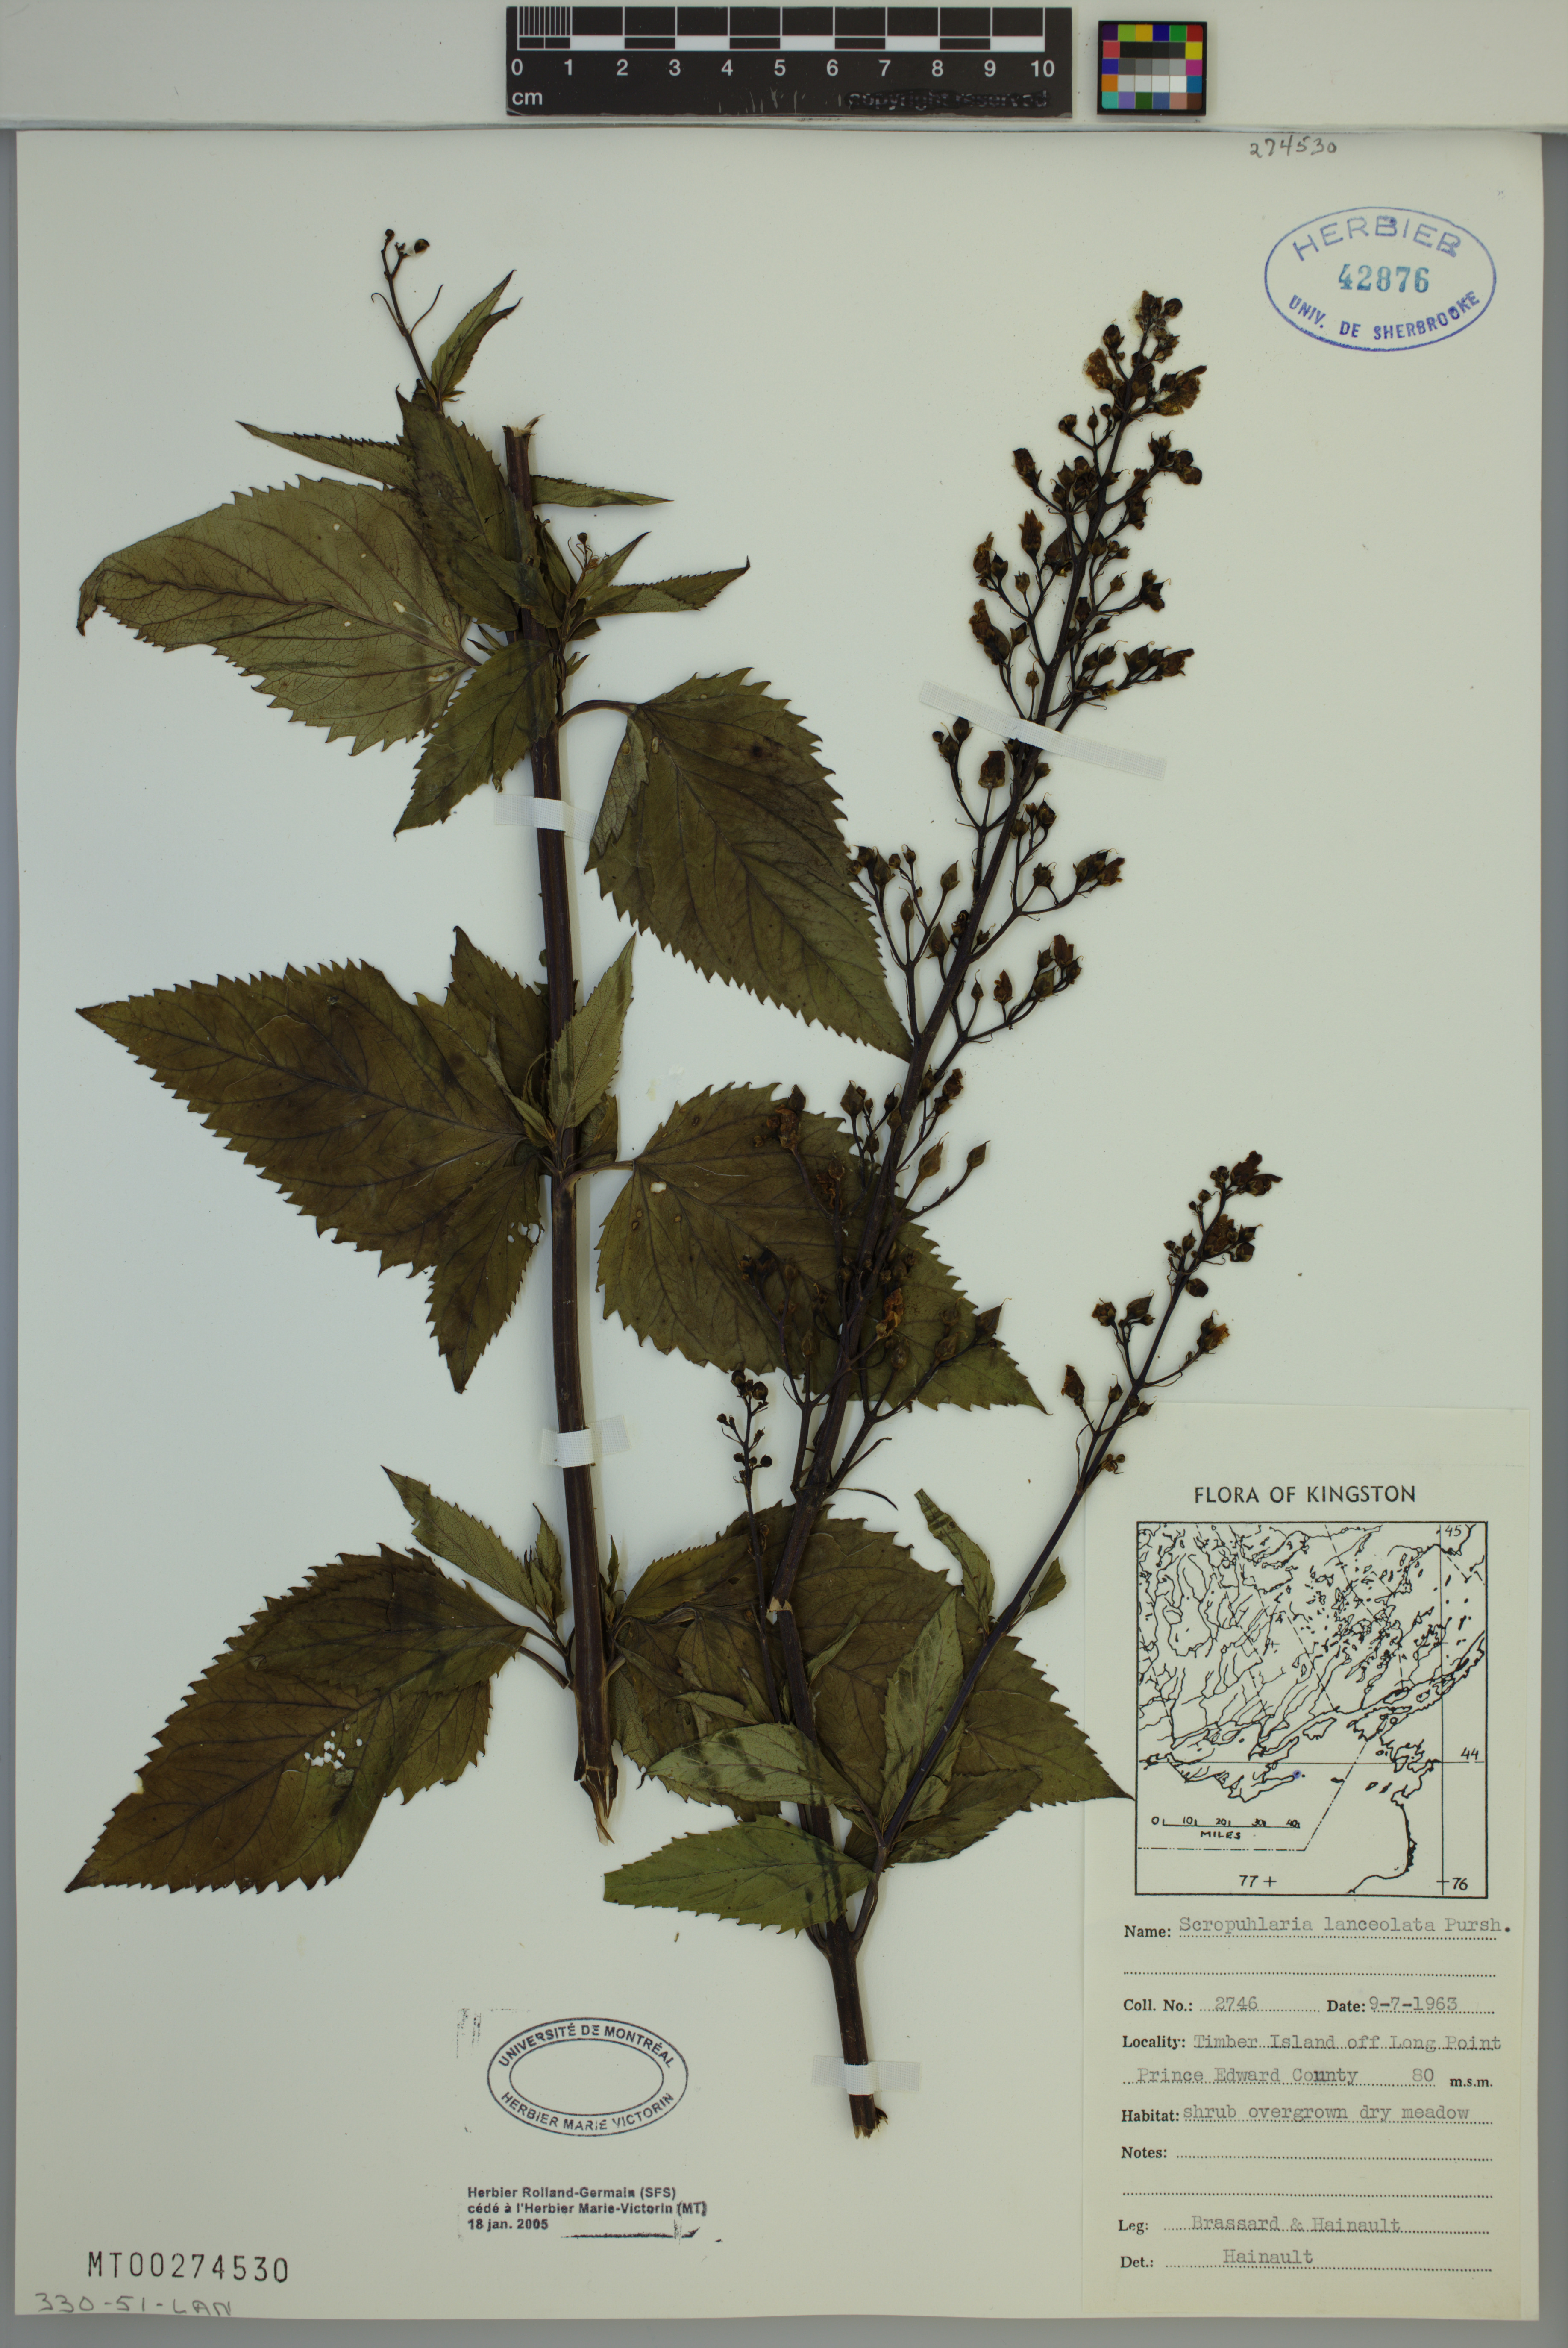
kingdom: Plantae
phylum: Tracheophyta
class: Magnoliopsida
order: Lamiales
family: Scrophulariaceae
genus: Scrophularia
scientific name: Scrophularia lanceolata
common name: American figwort
